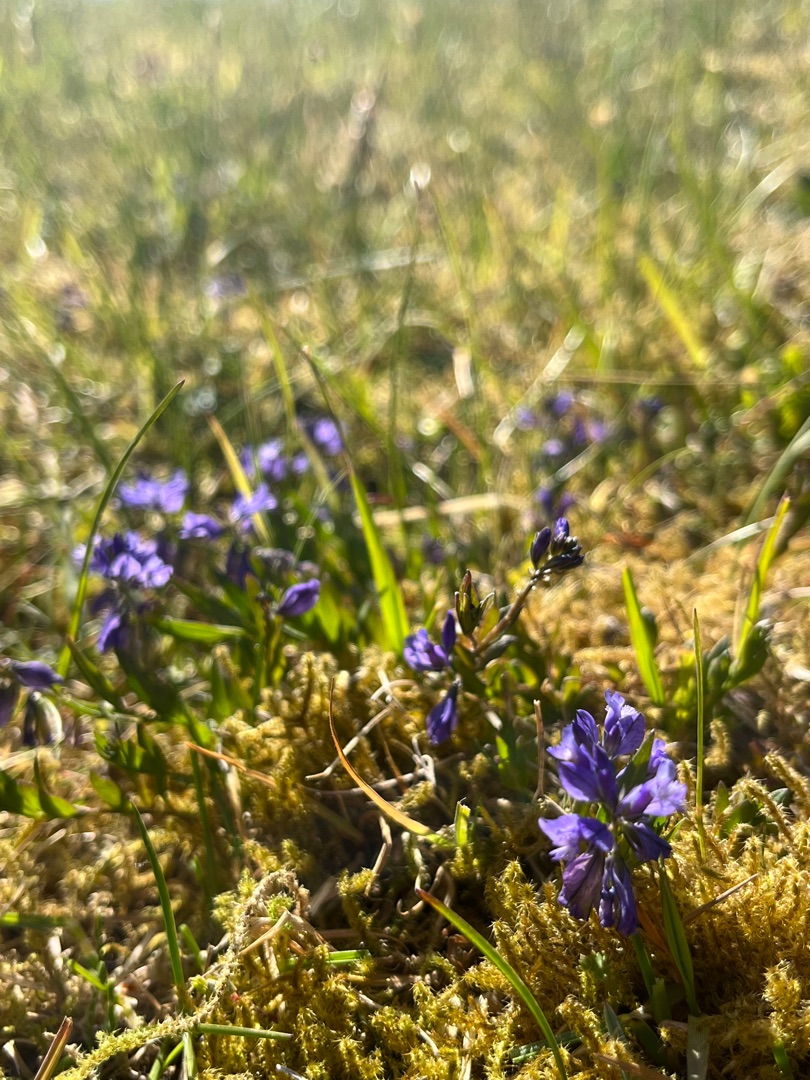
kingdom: Plantae
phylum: Tracheophyta
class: Magnoliopsida
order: Fabales
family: Polygalaceae
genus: Polygala
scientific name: Polygala vulgaris
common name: Almindelig mælkeurt
